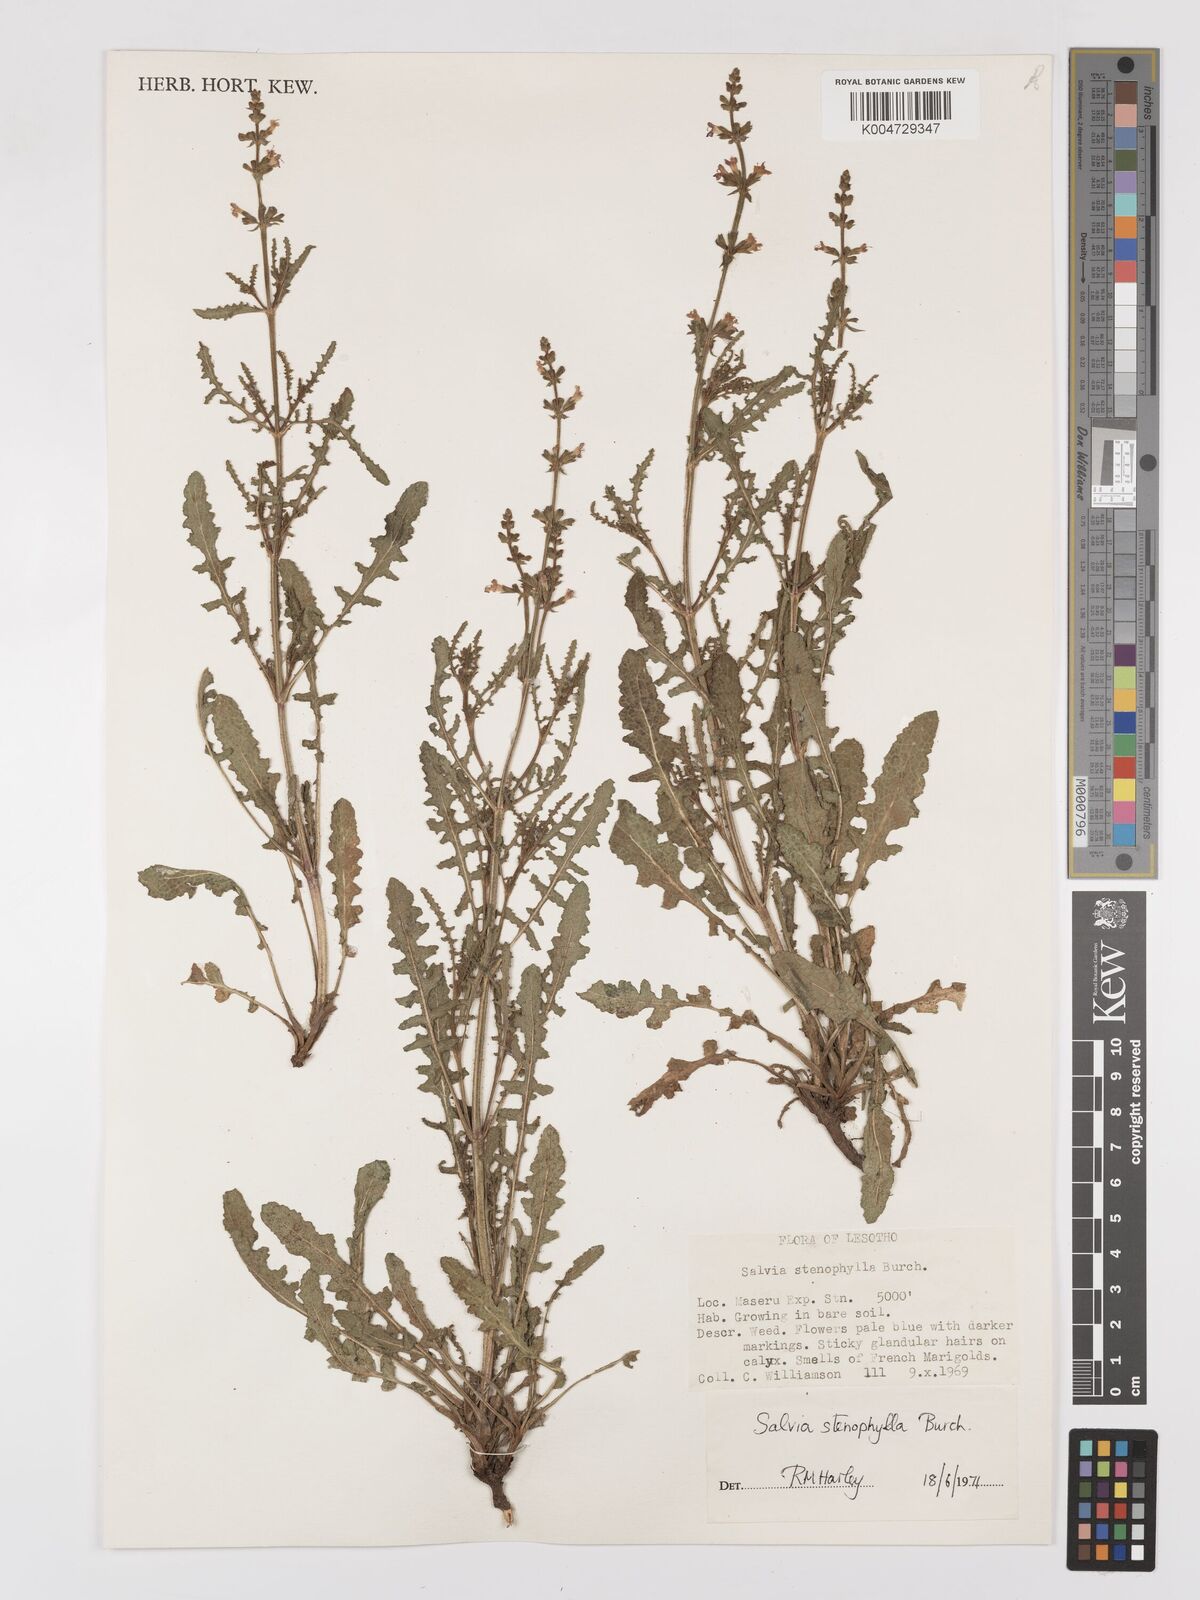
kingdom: Plantae
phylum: Tracheophyta
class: Magnoliopsida
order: Lamiales
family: Lamiaceae
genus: Salvia
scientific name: Salvia stenophylla
